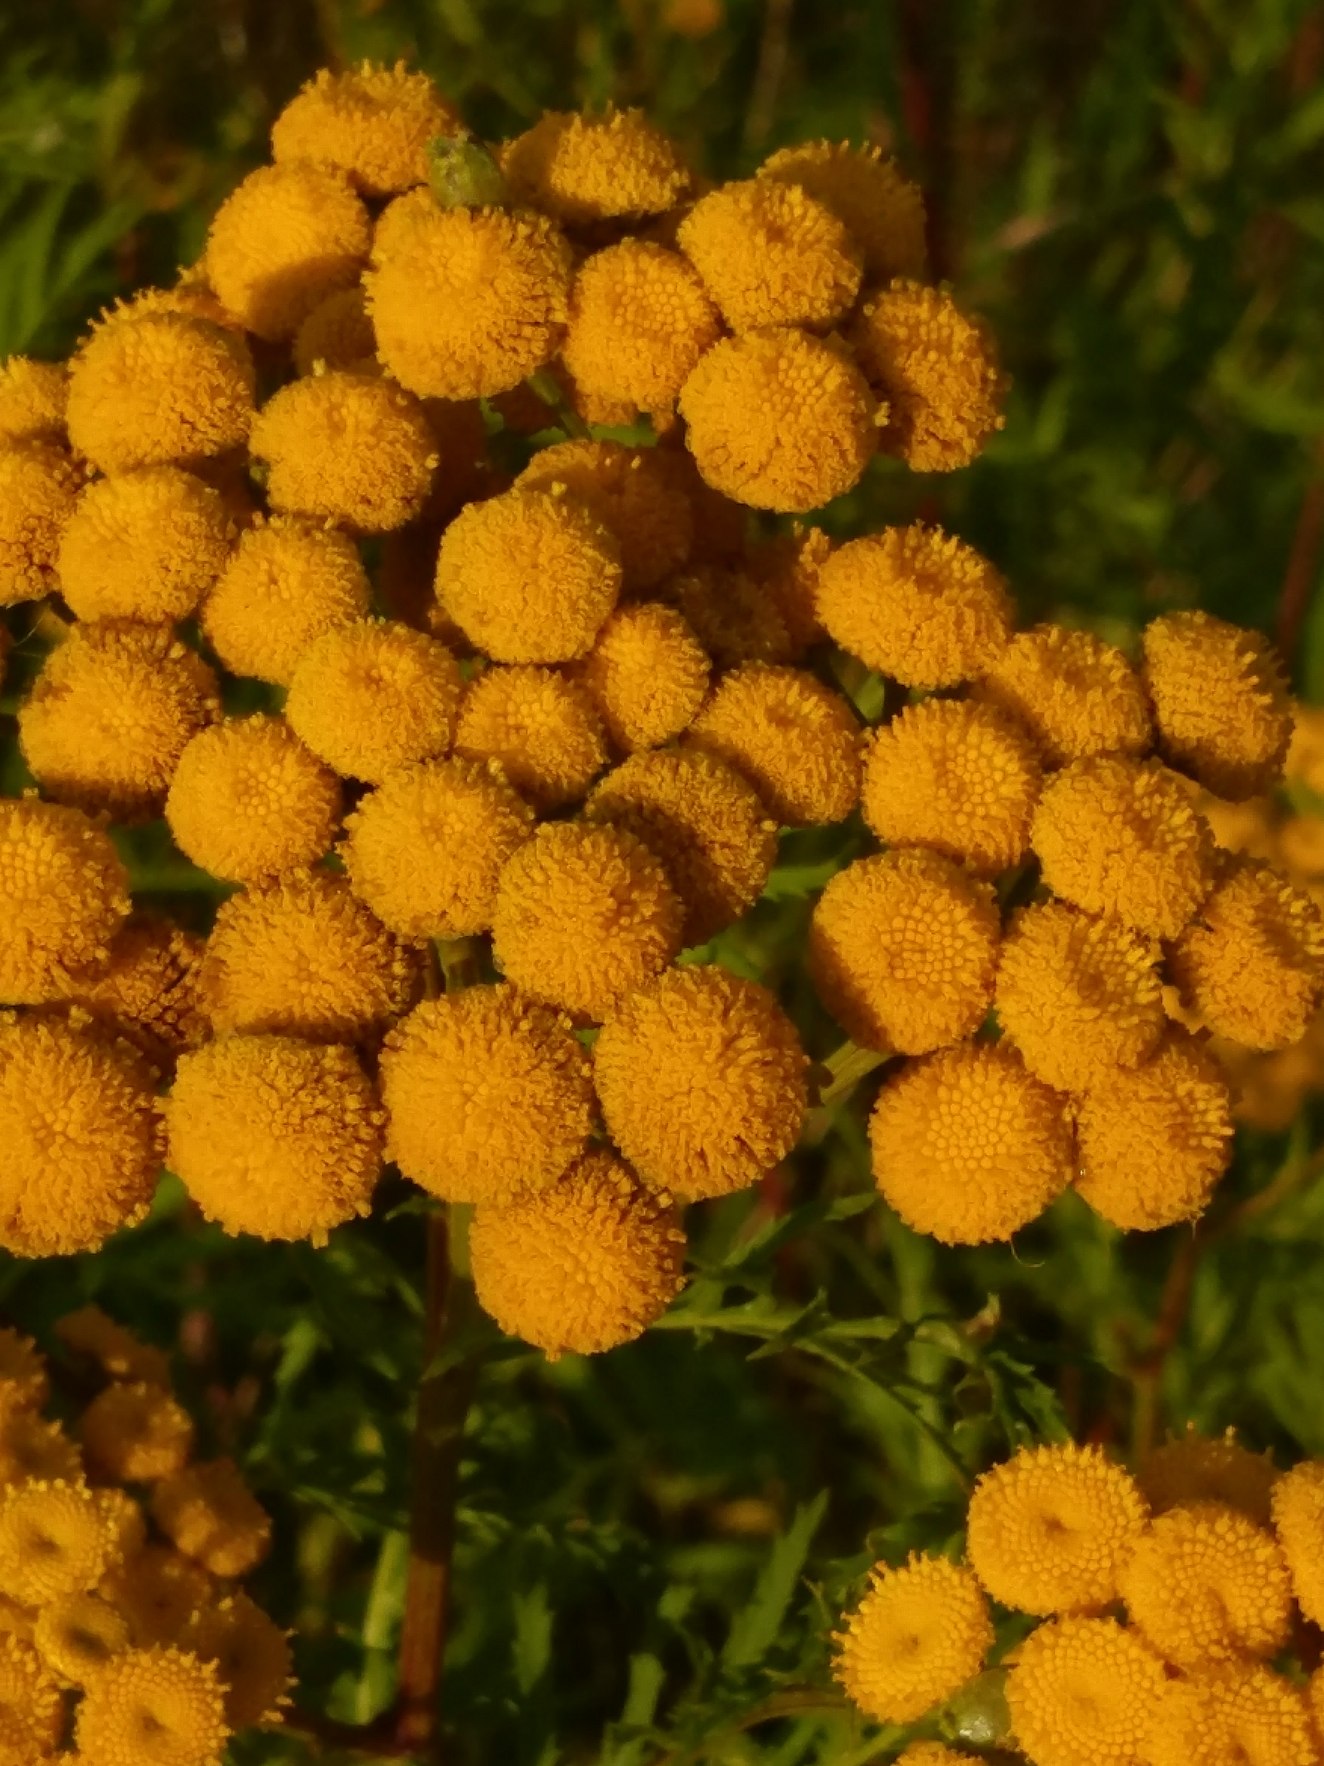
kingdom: Plantae
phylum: Tracheophyta
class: Magnoliopsida
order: Asterales
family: Asteraceae
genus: Tanacetum
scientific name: Tanacetum vulgare
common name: Rejnfan
